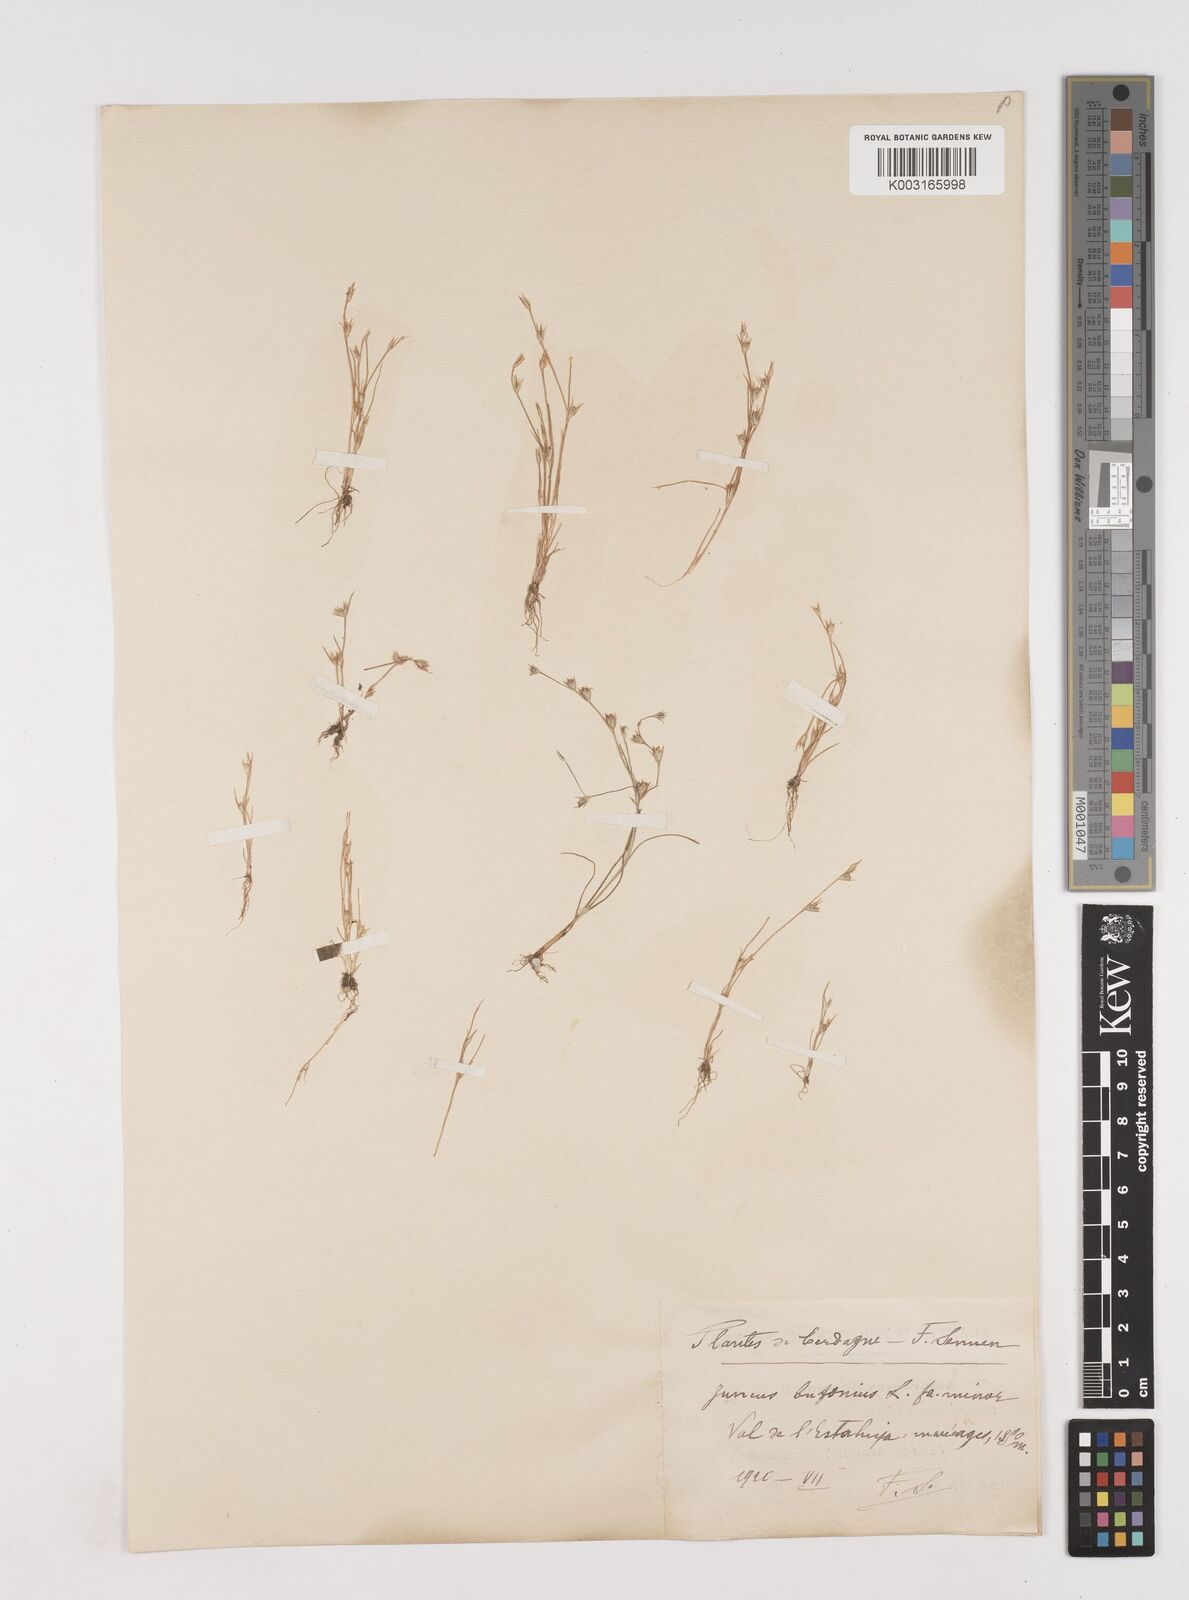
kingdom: Plantae
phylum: Tracheophyta
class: Liliopsida
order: Poales
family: Juncaceae
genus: Juncus
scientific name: Juncus bufonius
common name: Toad rush
